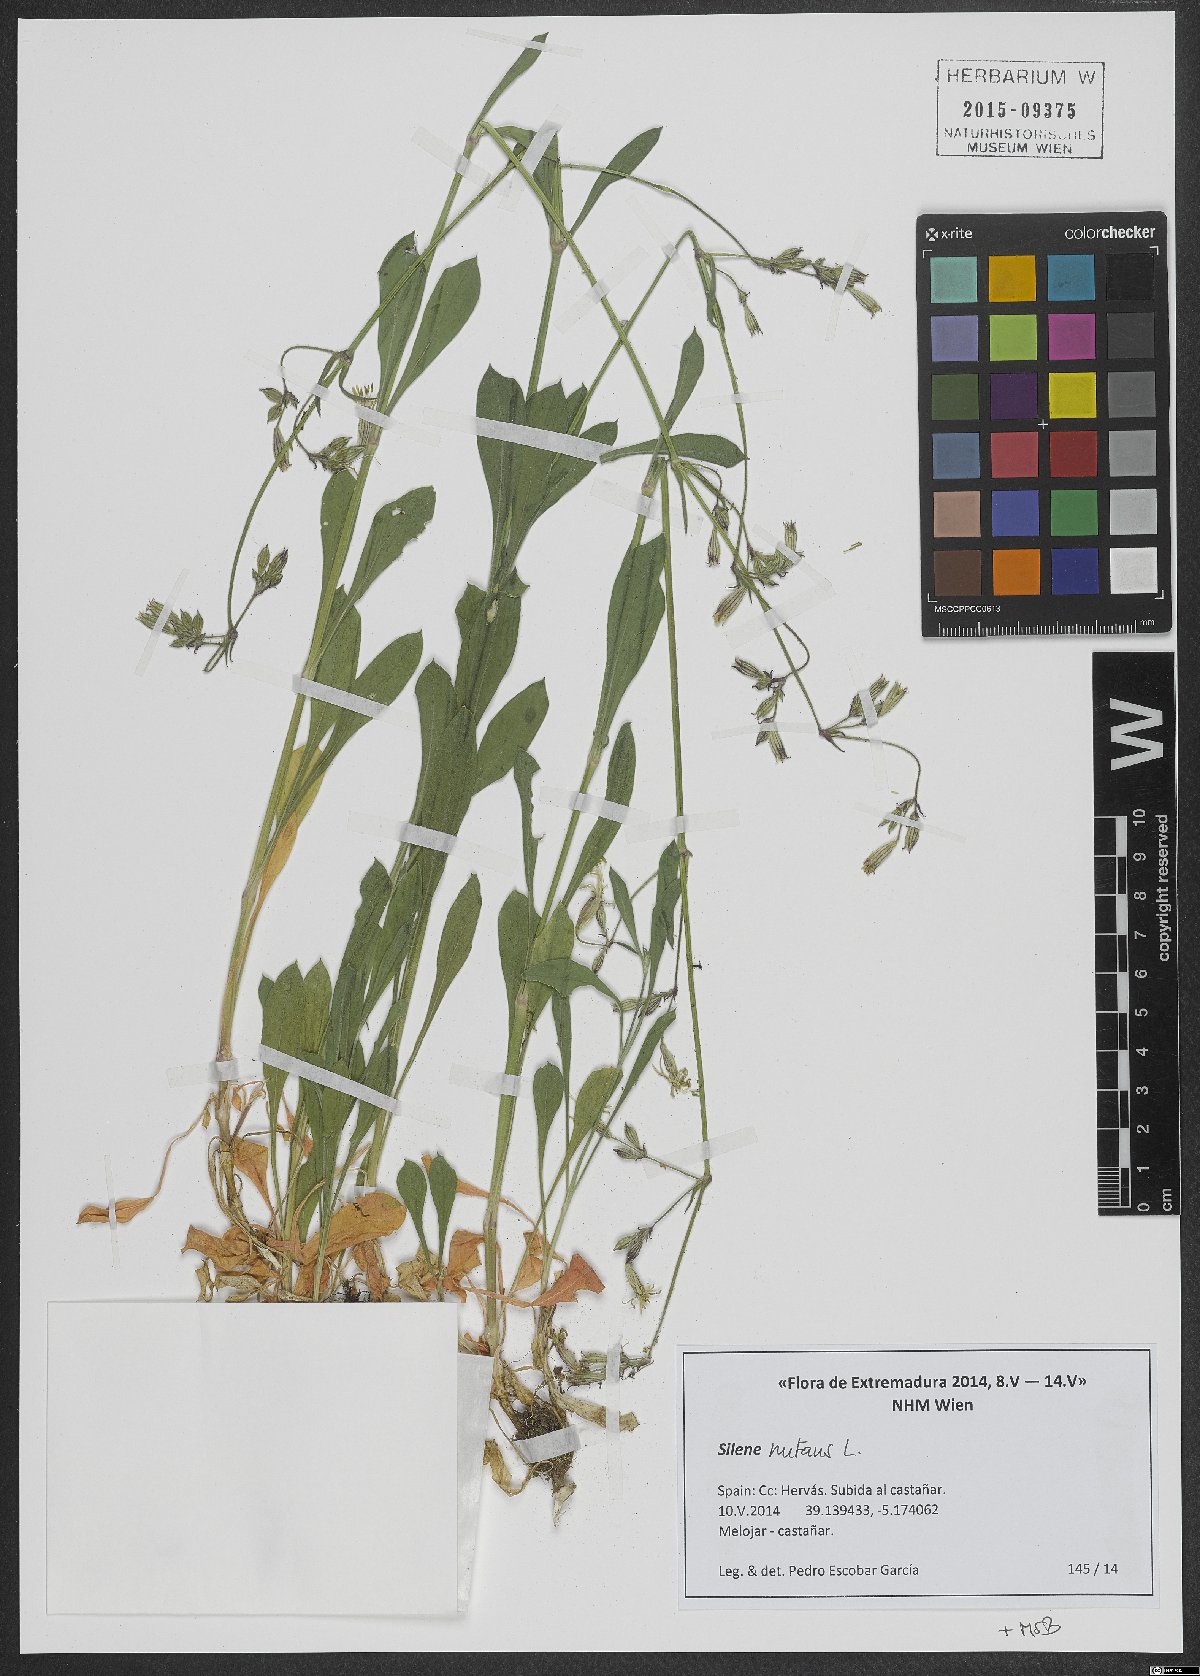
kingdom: Plantae
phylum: Tracheophyta
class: Magnoliopsida
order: Caryophyllales
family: Caryophyllaceae
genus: Silene
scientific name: Silene nutans
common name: Nottingham catchfly
